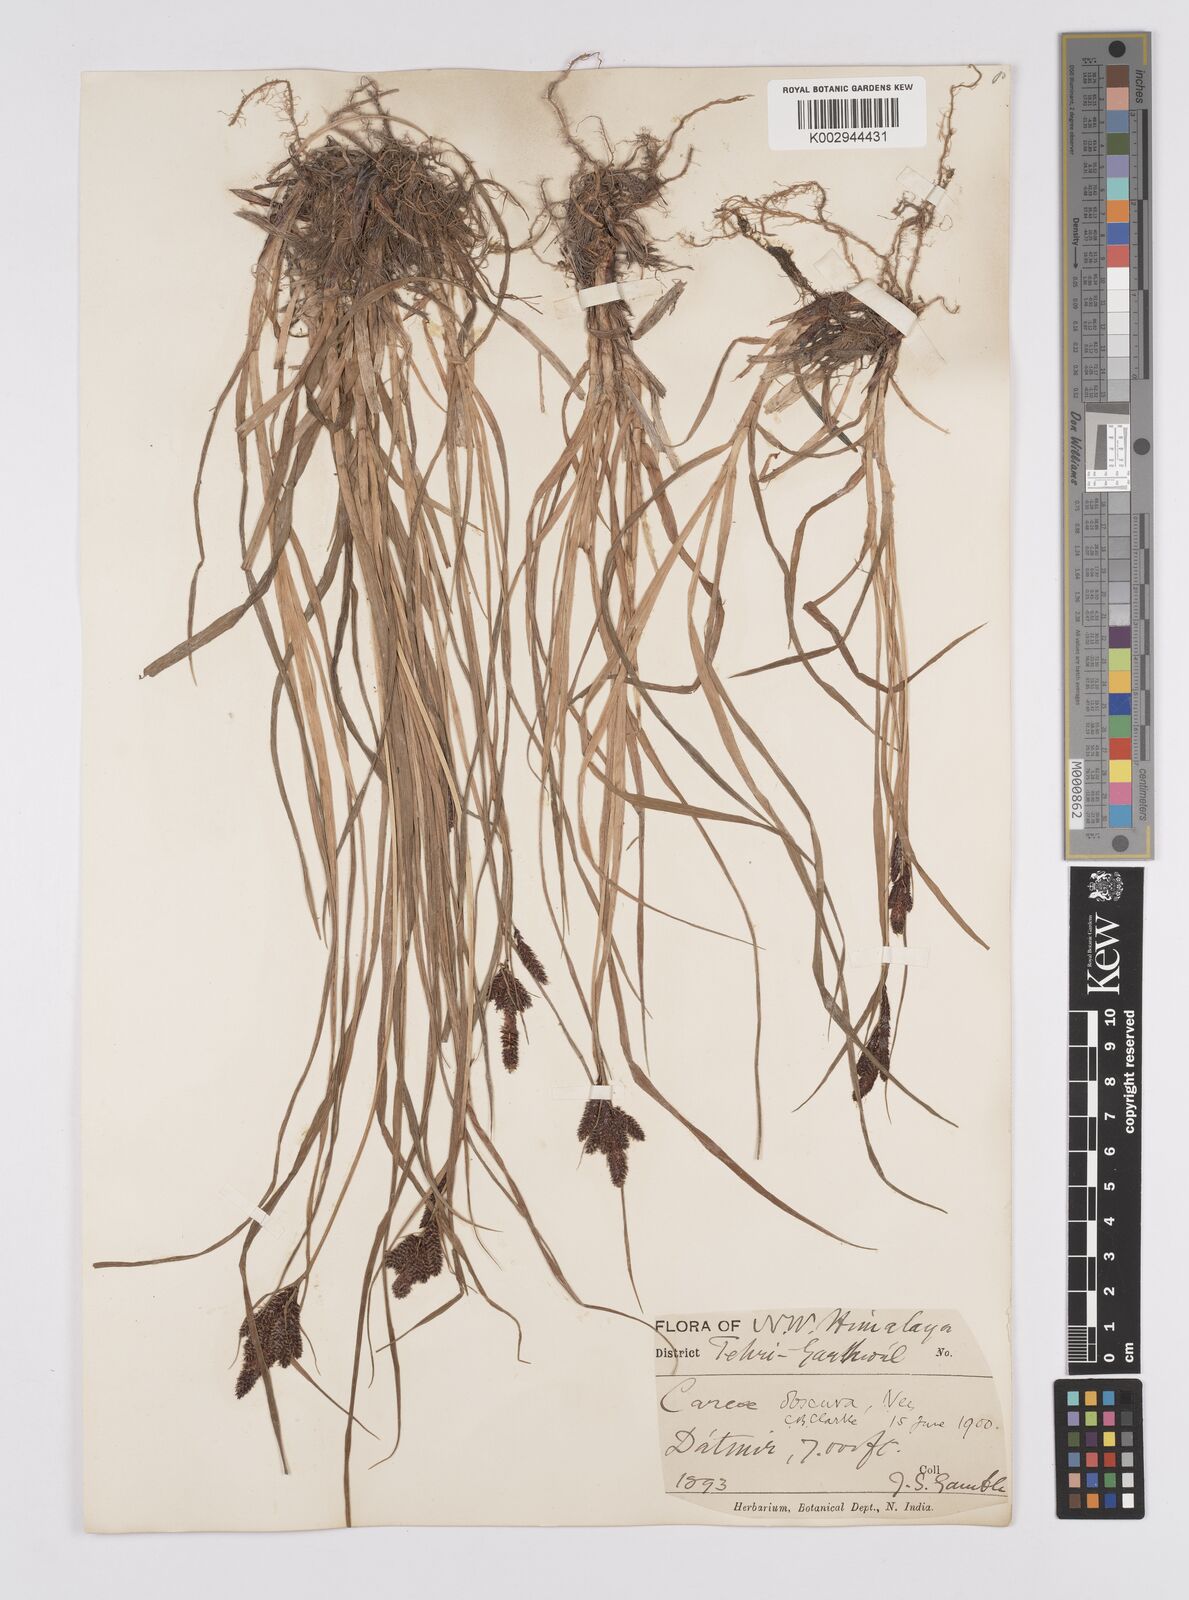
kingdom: Plantae
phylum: Tracheophyta
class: Liliopsida
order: Poales
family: Cyperaceae
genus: Carex
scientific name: Carex obscura
